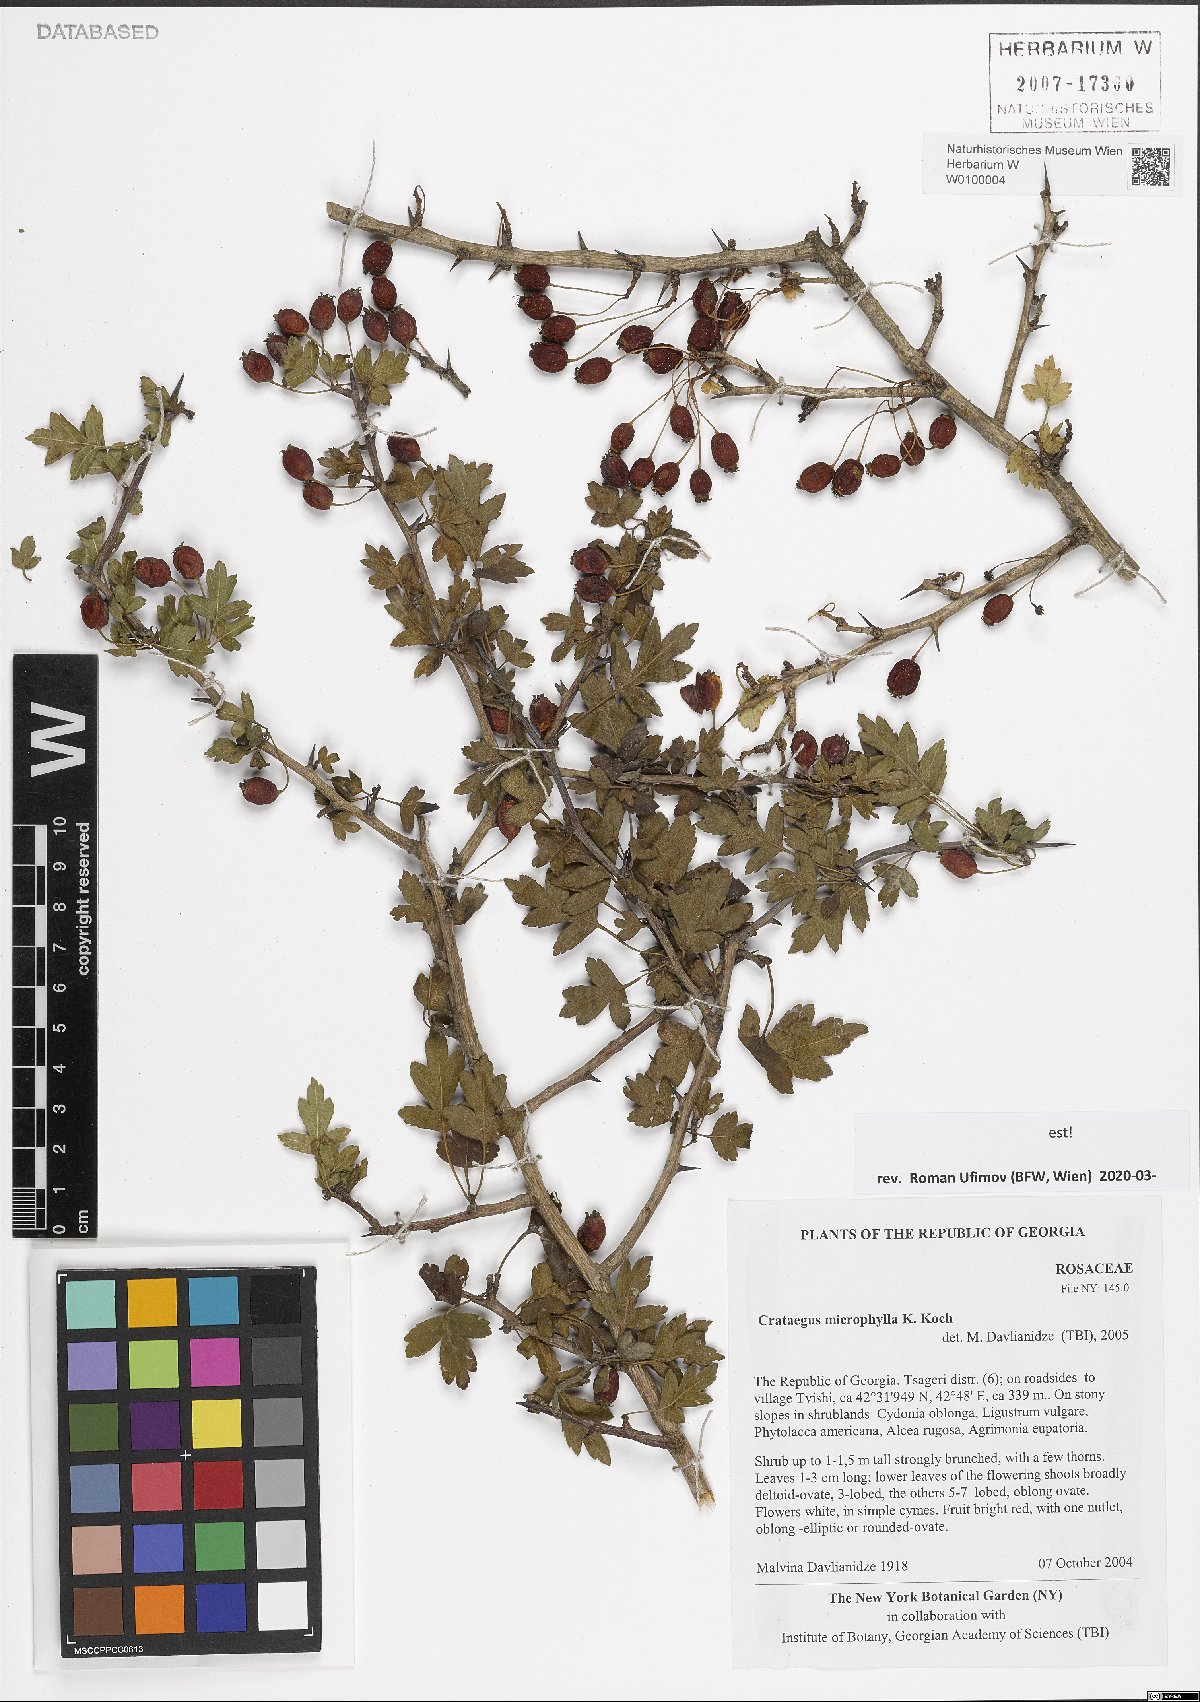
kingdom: Plantae
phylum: Tracheophyta
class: Magnoliopsida
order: Rosales
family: Rosaceae
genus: Crataegus
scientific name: Crataegus microphylla
